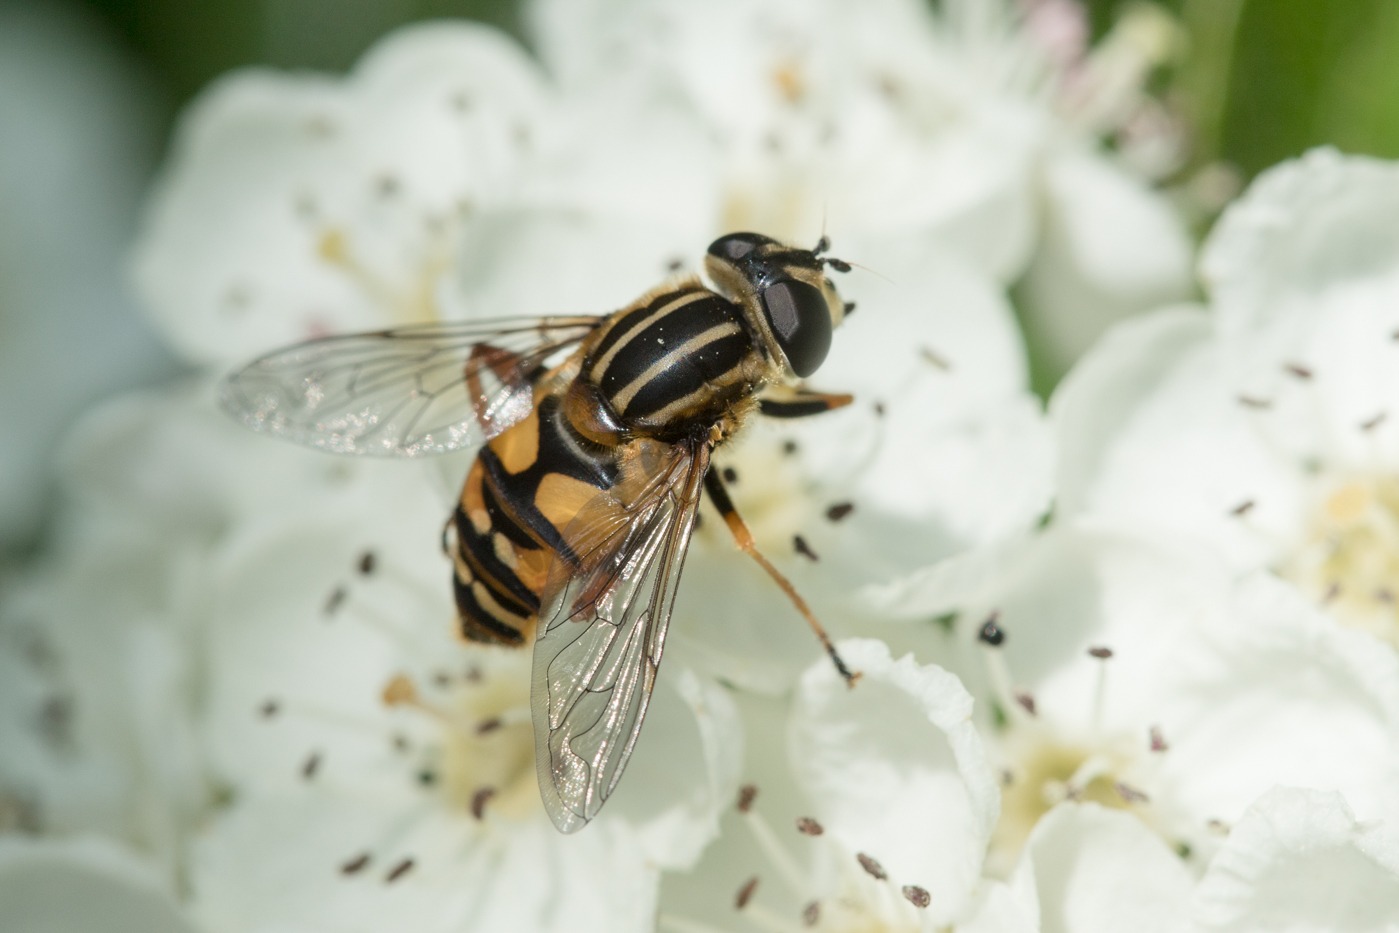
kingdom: Animalia
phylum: Arthropoda
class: Insecta
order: Diptera
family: Syrphidae
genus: Helophilus
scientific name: Helophilus pendulus
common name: Almindelig sumpsvirreflue
